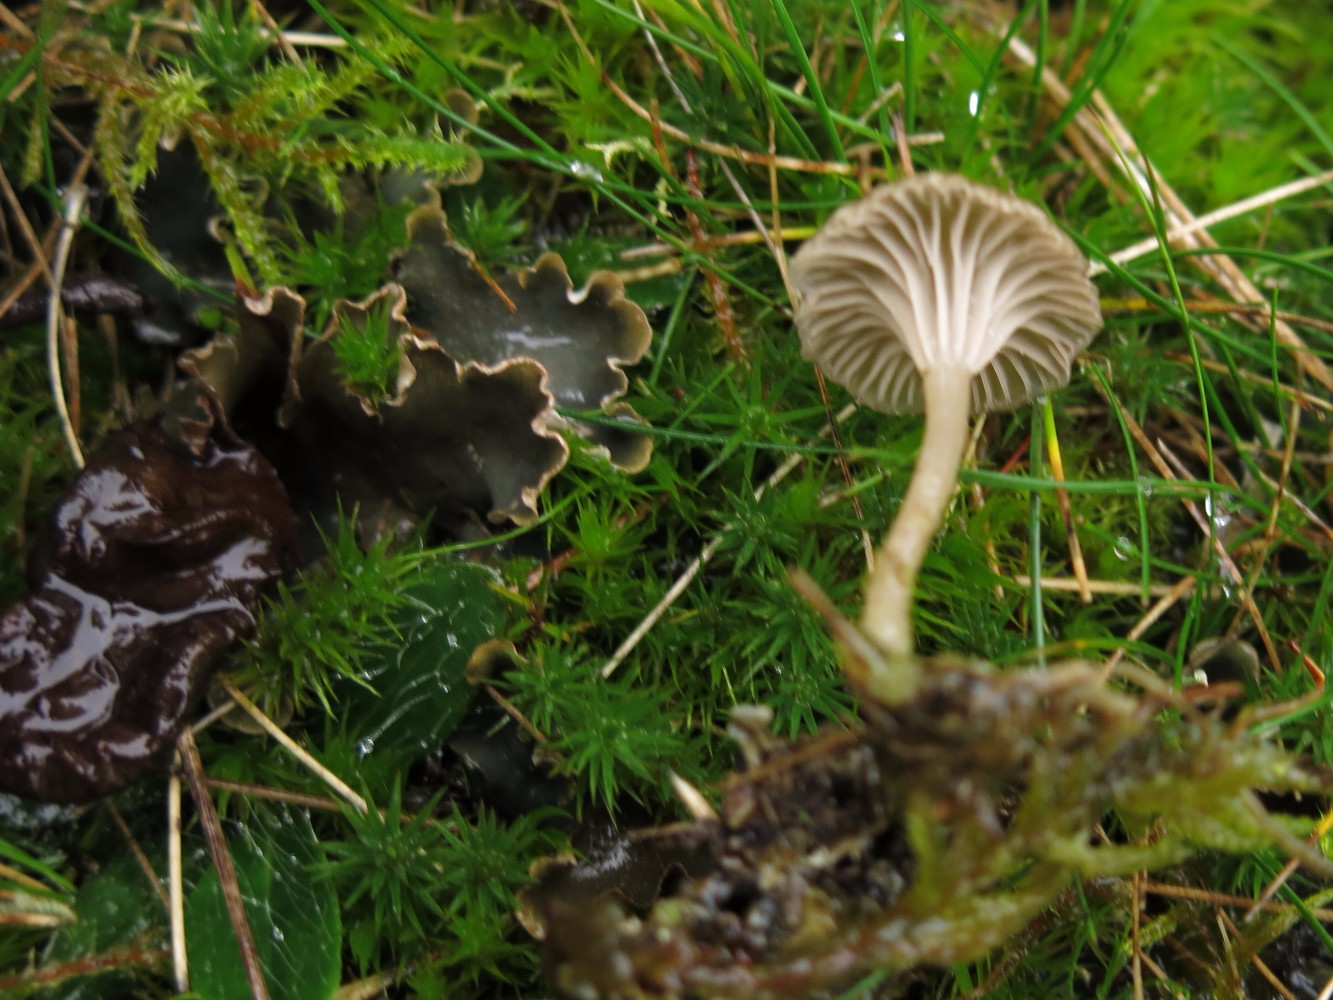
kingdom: Fungi
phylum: Basidiomycota
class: Agaricomycetes
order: Agaricales
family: Hygrophoraceae
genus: Arrhenia
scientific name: Arrhenia peltigerina
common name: skjoldlav-fontænehat
